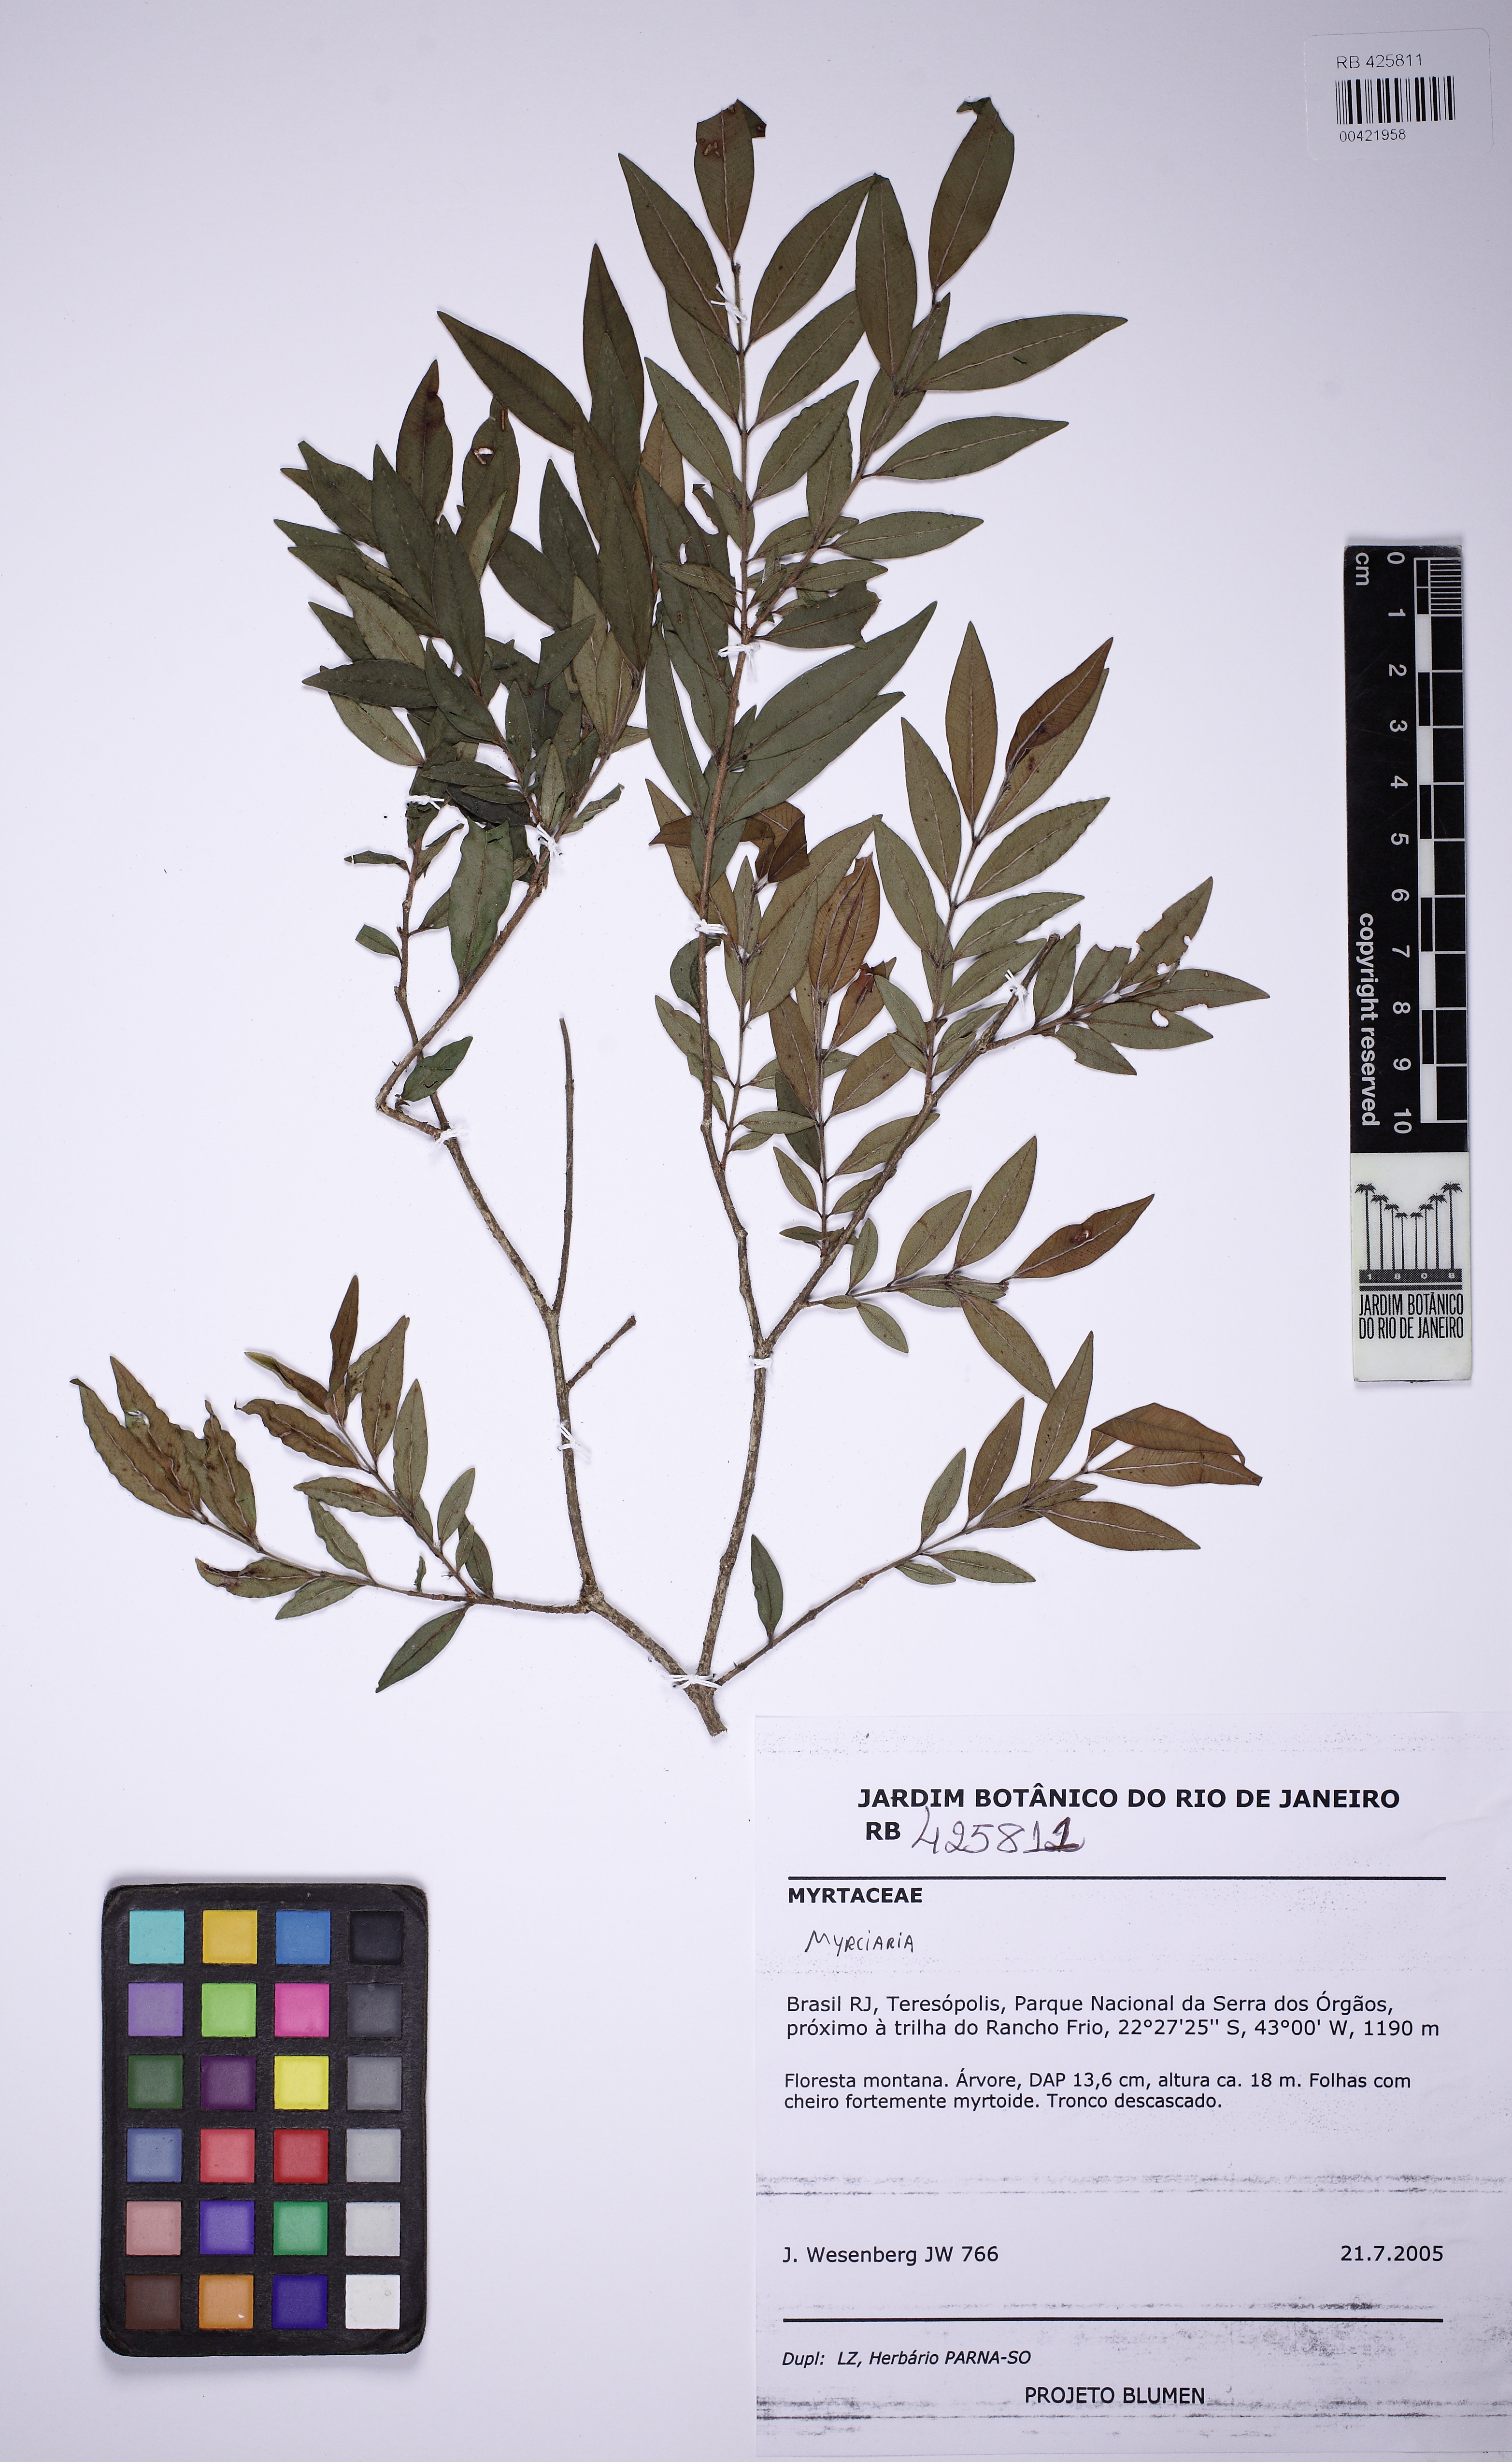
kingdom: Plantae
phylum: Tracheophyta
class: Magnoliopsida
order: Myrtales
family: Myrtaceae
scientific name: Myrtaceae
